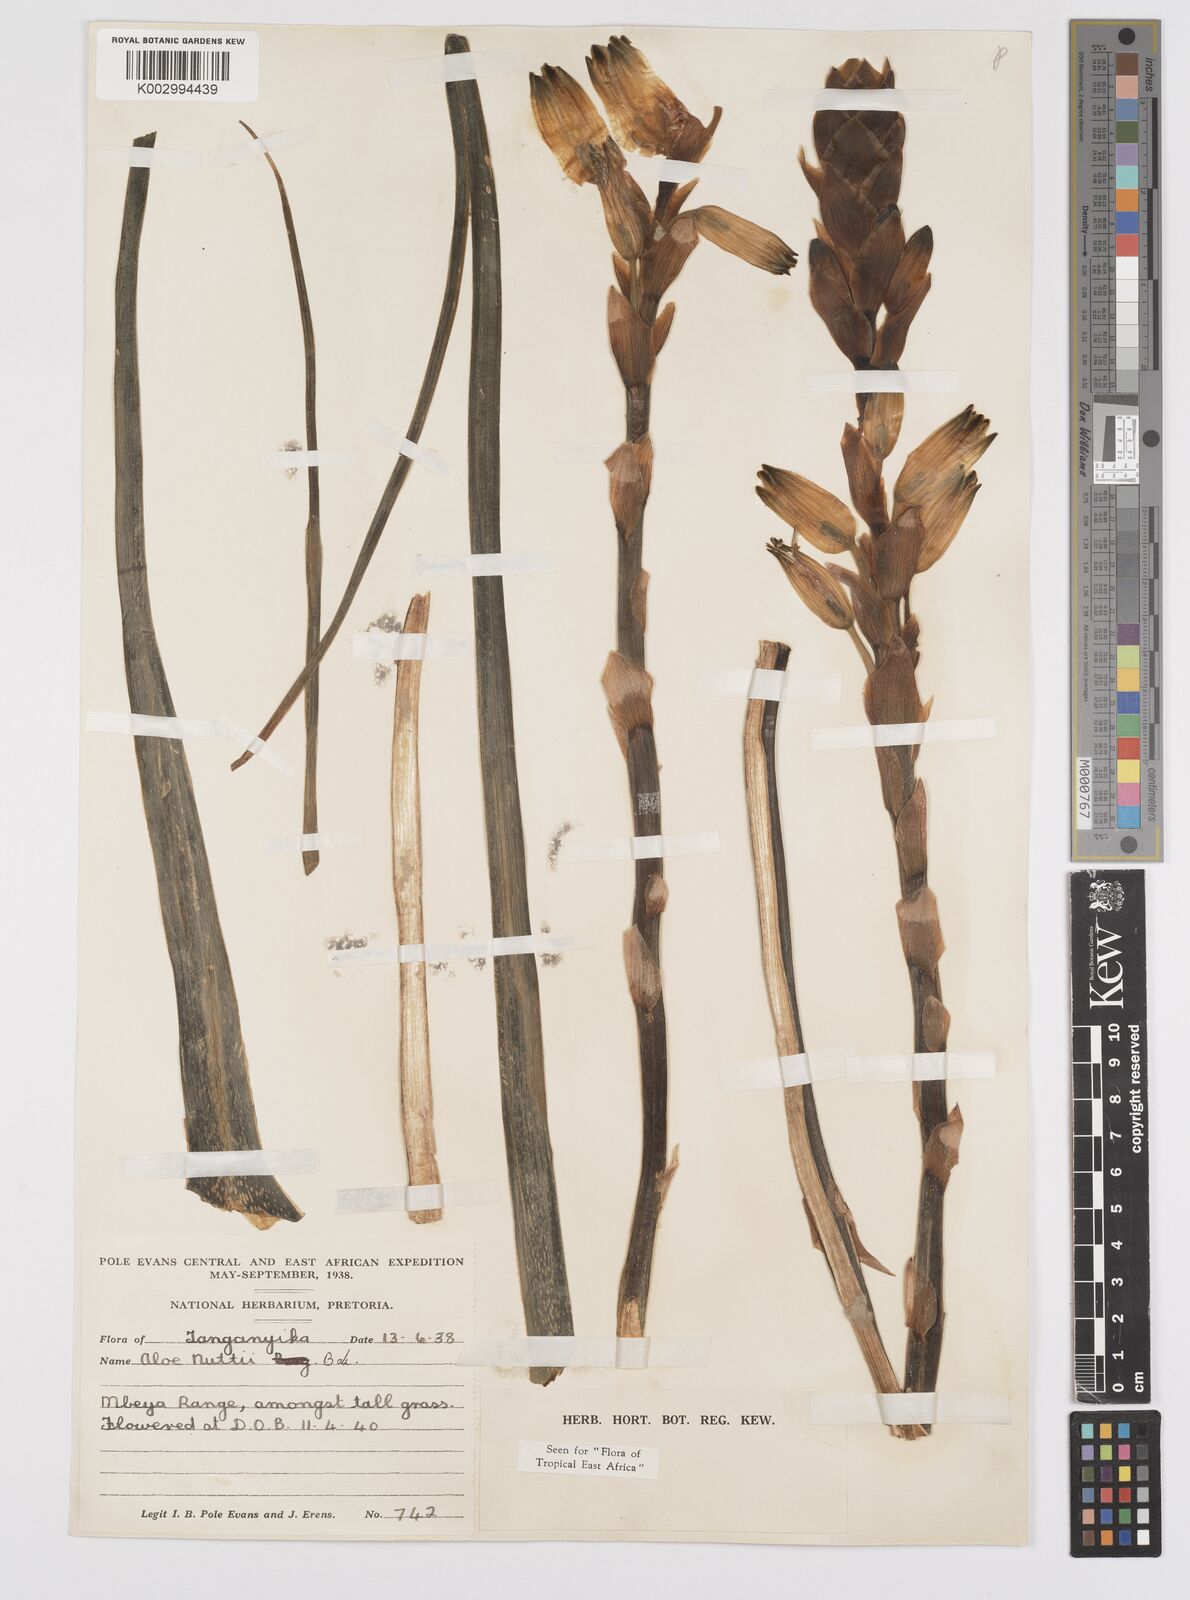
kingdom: Plantae
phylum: Tracheophyta
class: Liliopsida
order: Asparagales
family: Asphodelaceae
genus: Aloe
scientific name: Aloe nuttii
